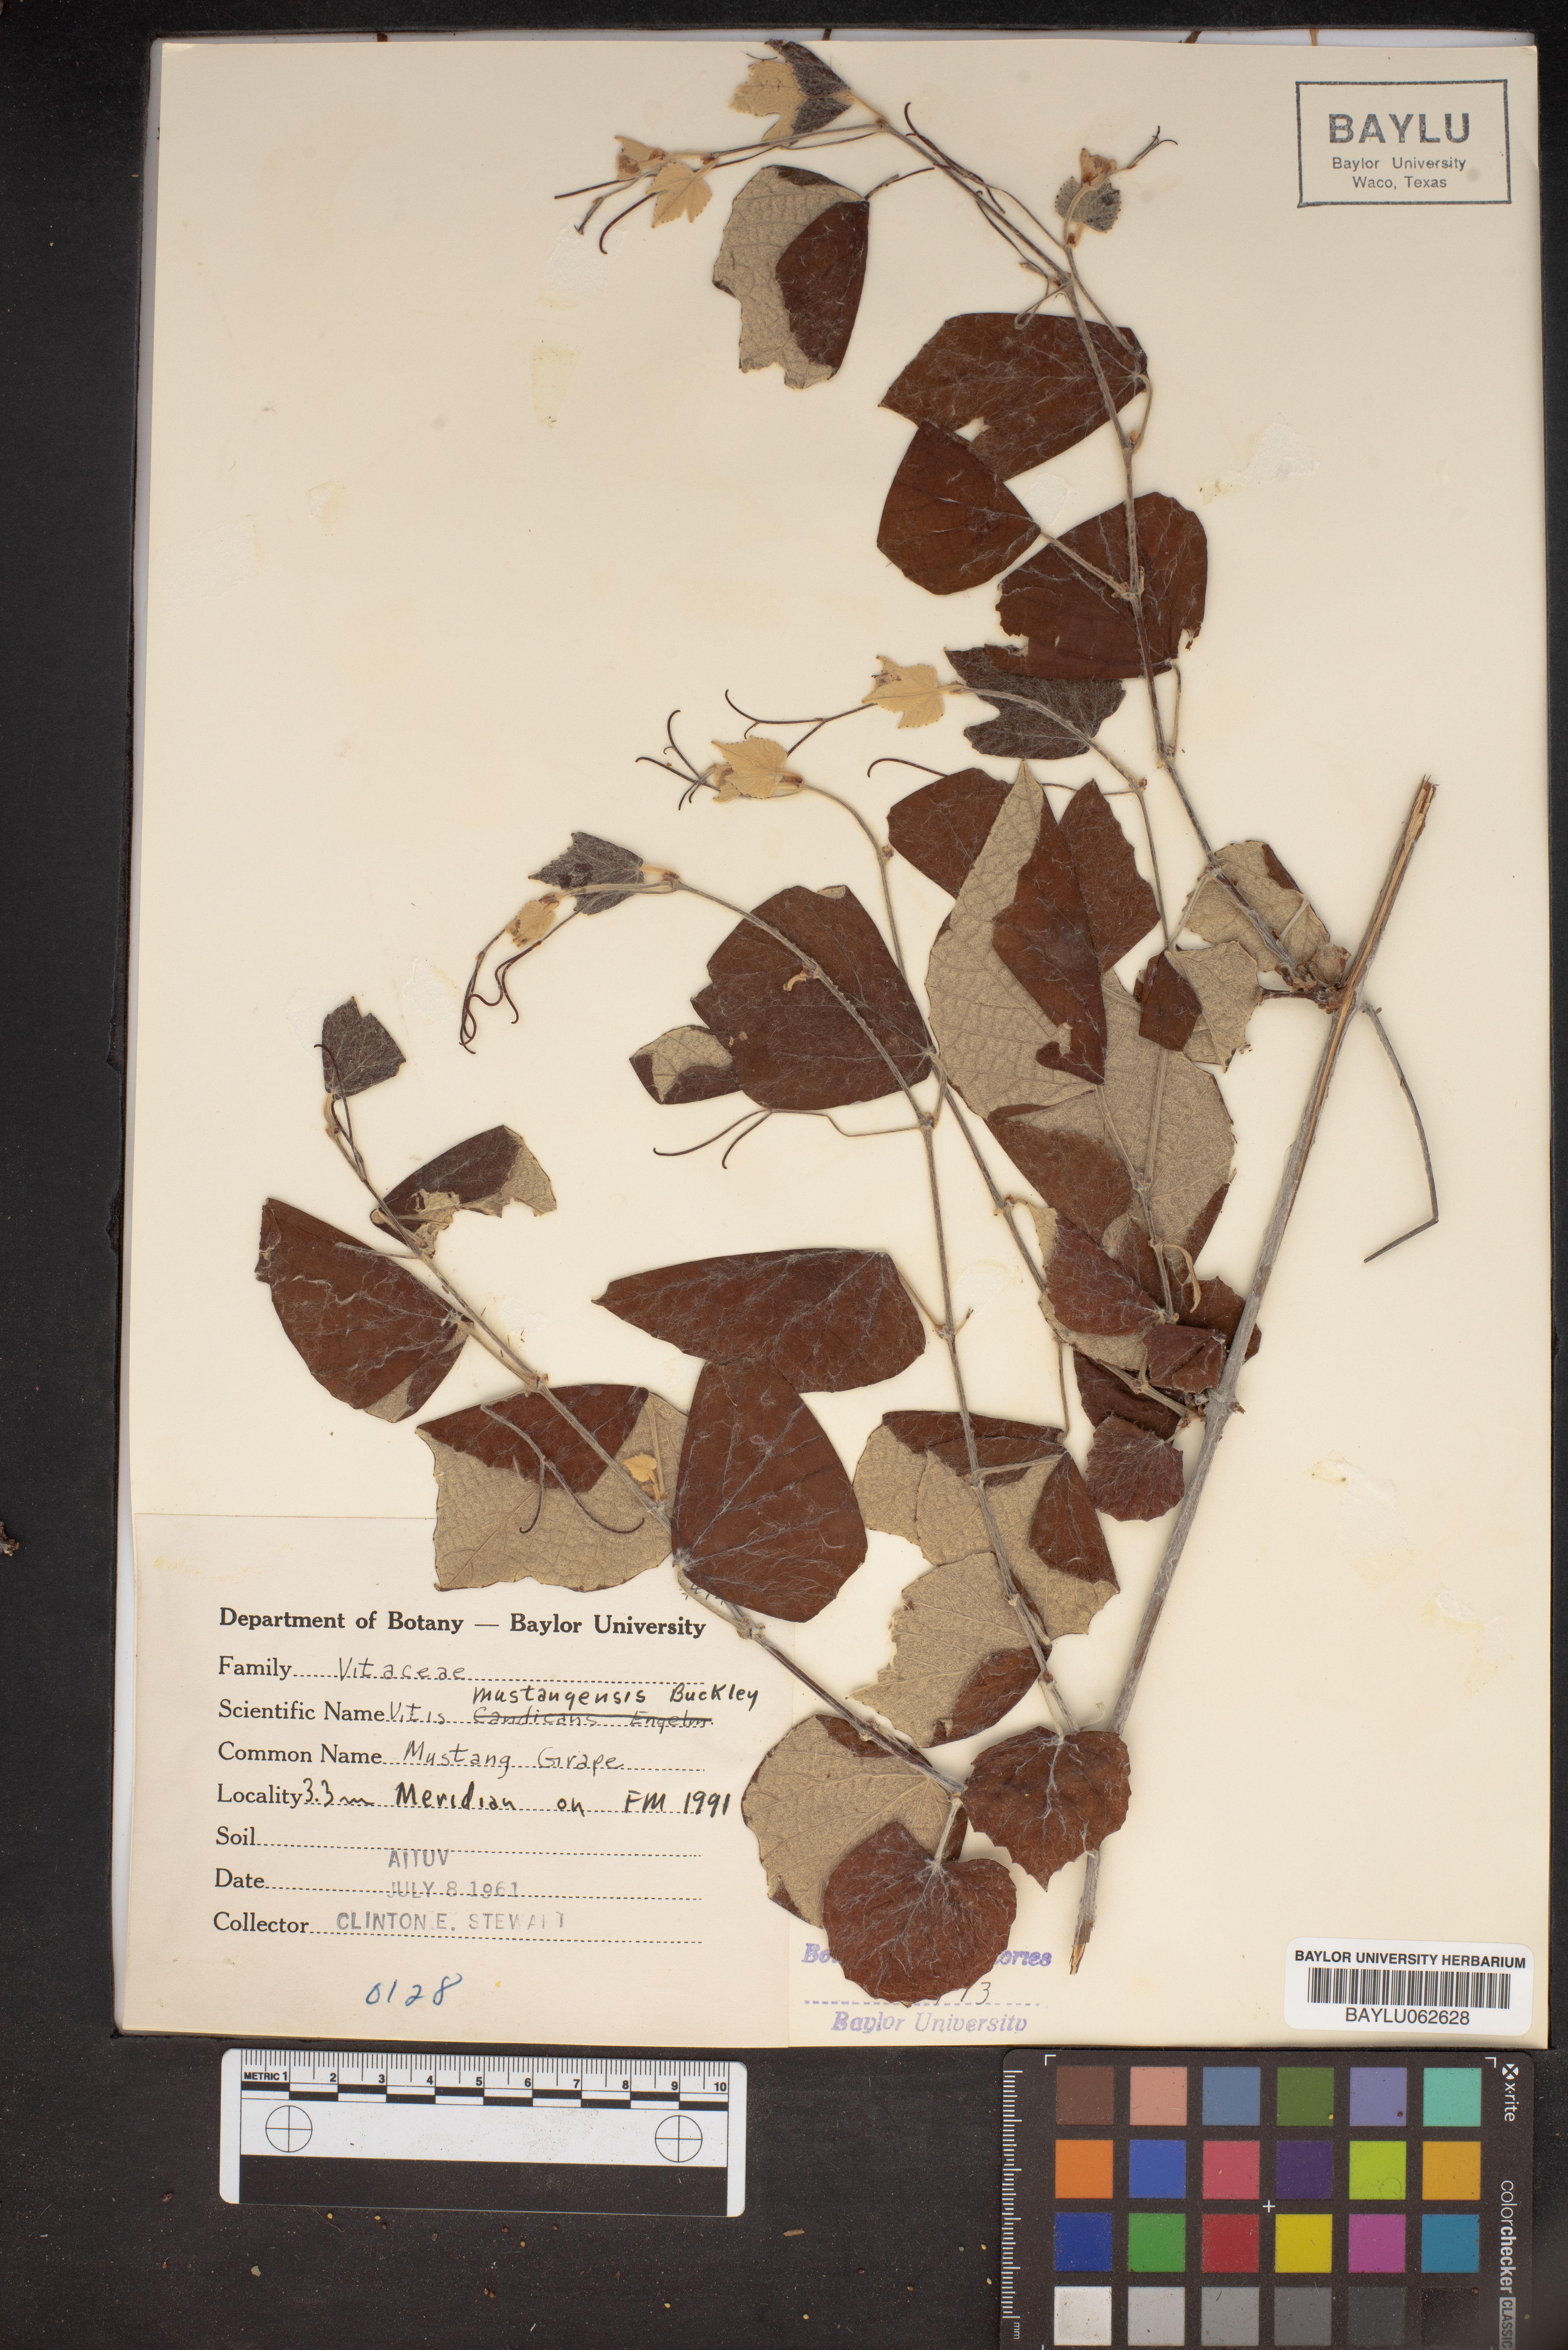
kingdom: Plantae
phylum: Tracheophyta
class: Magnoliopsida
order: Vitales
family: Vitaceae
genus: Vitis
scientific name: Vitis mustangensis
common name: Mustang grape
